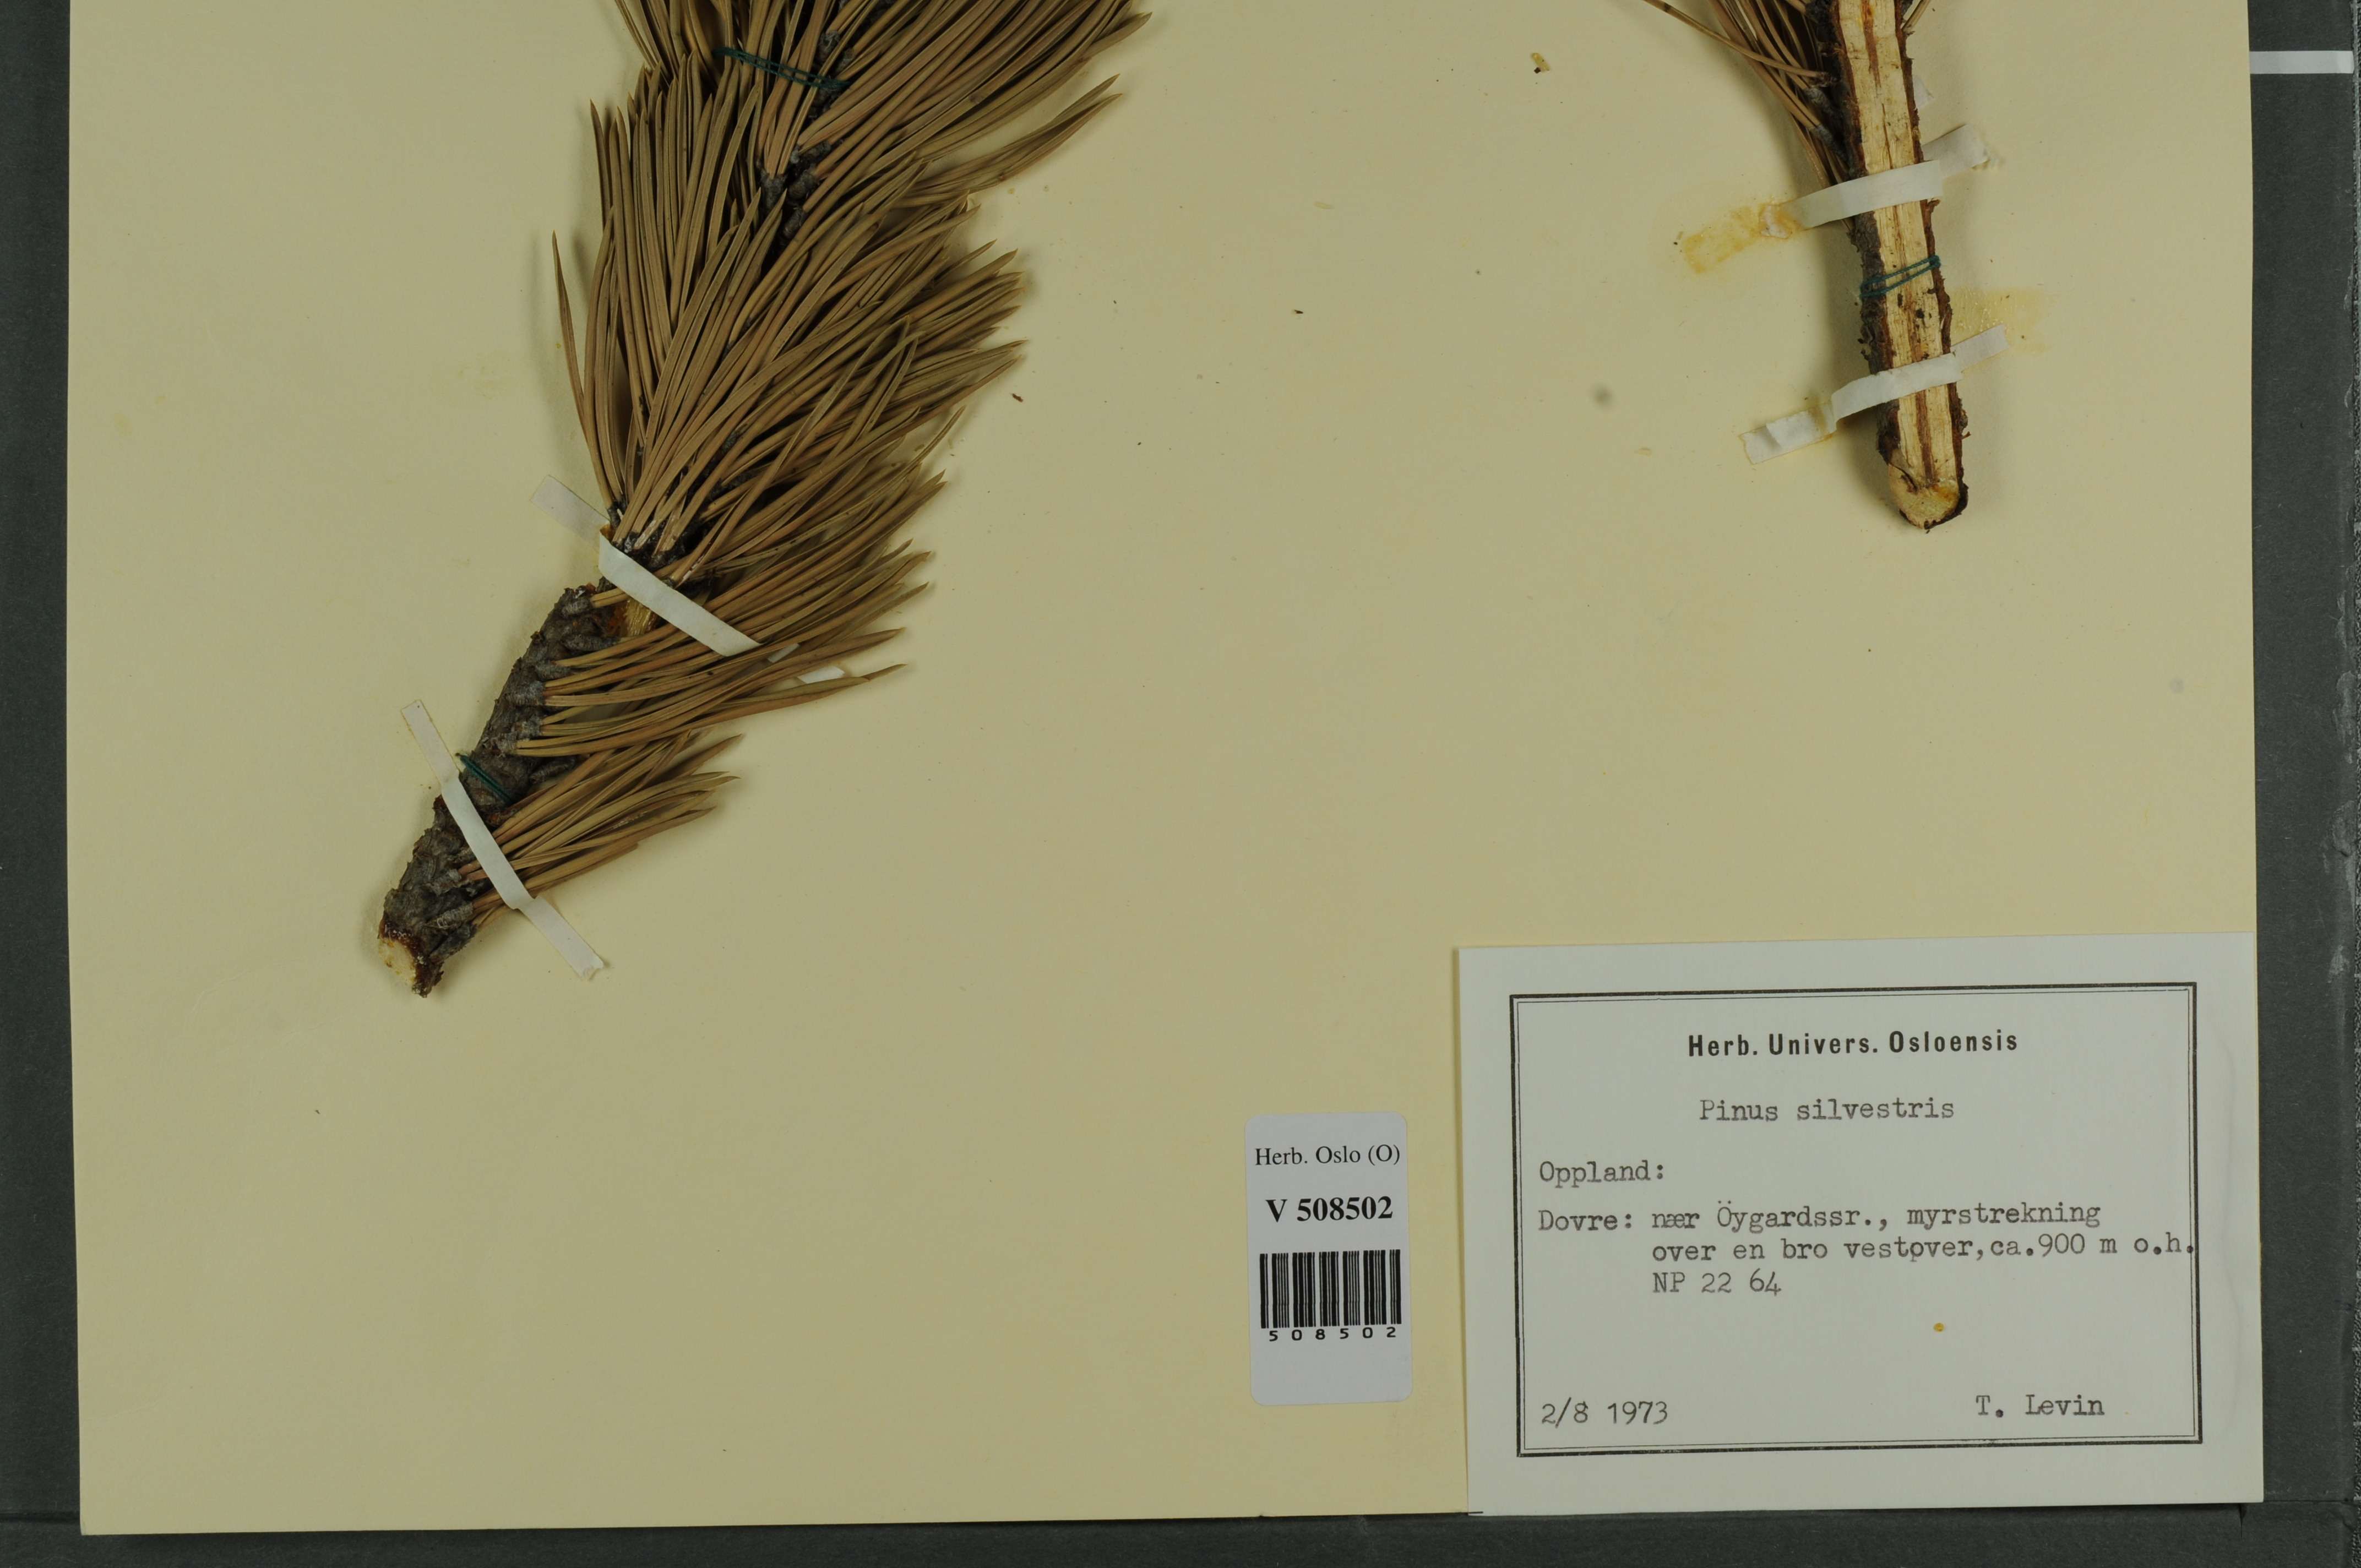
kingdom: Plantae
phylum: Tracheophyta
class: Pinopsida
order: Pinales
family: Pinaceae
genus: Pinus
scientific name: Pinus mugo
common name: Mugo pine
